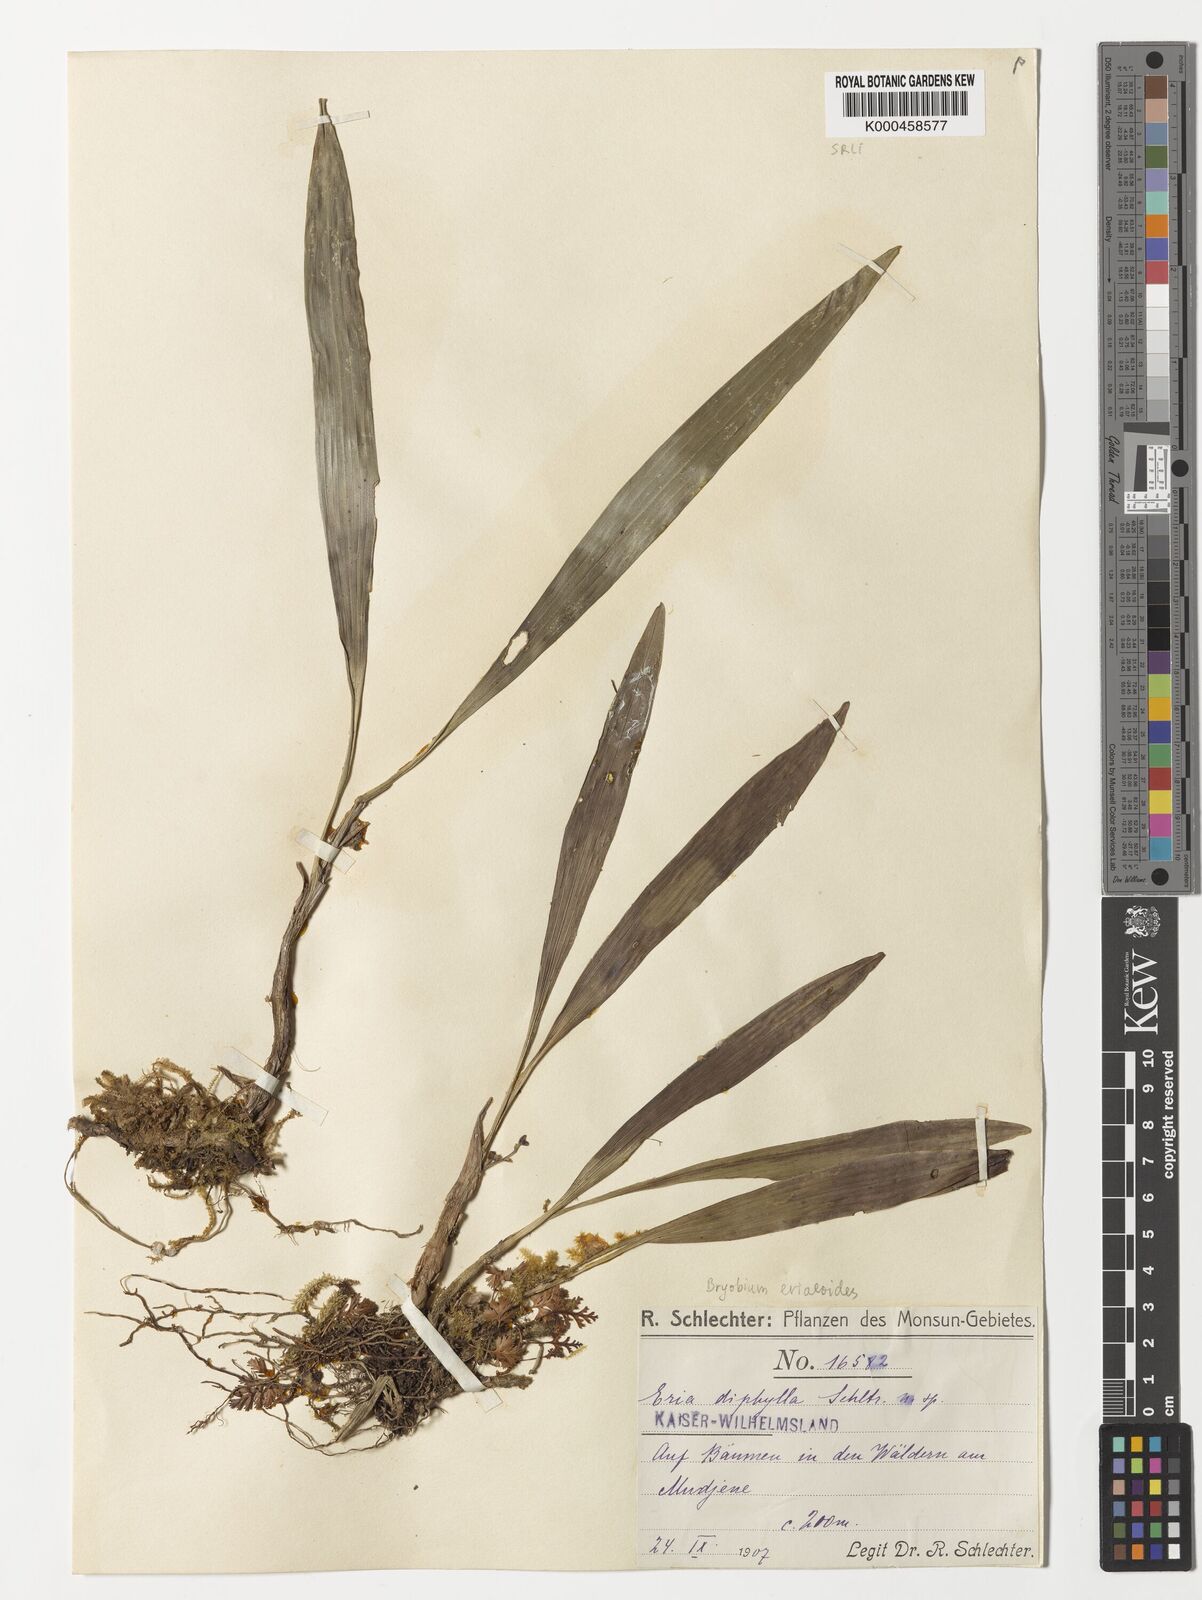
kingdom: Plantae
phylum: Tracheophyta
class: Liliopsida
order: Asparagales
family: Orchidaceae
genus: Bryobium
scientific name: Bryobium eriaeoides
